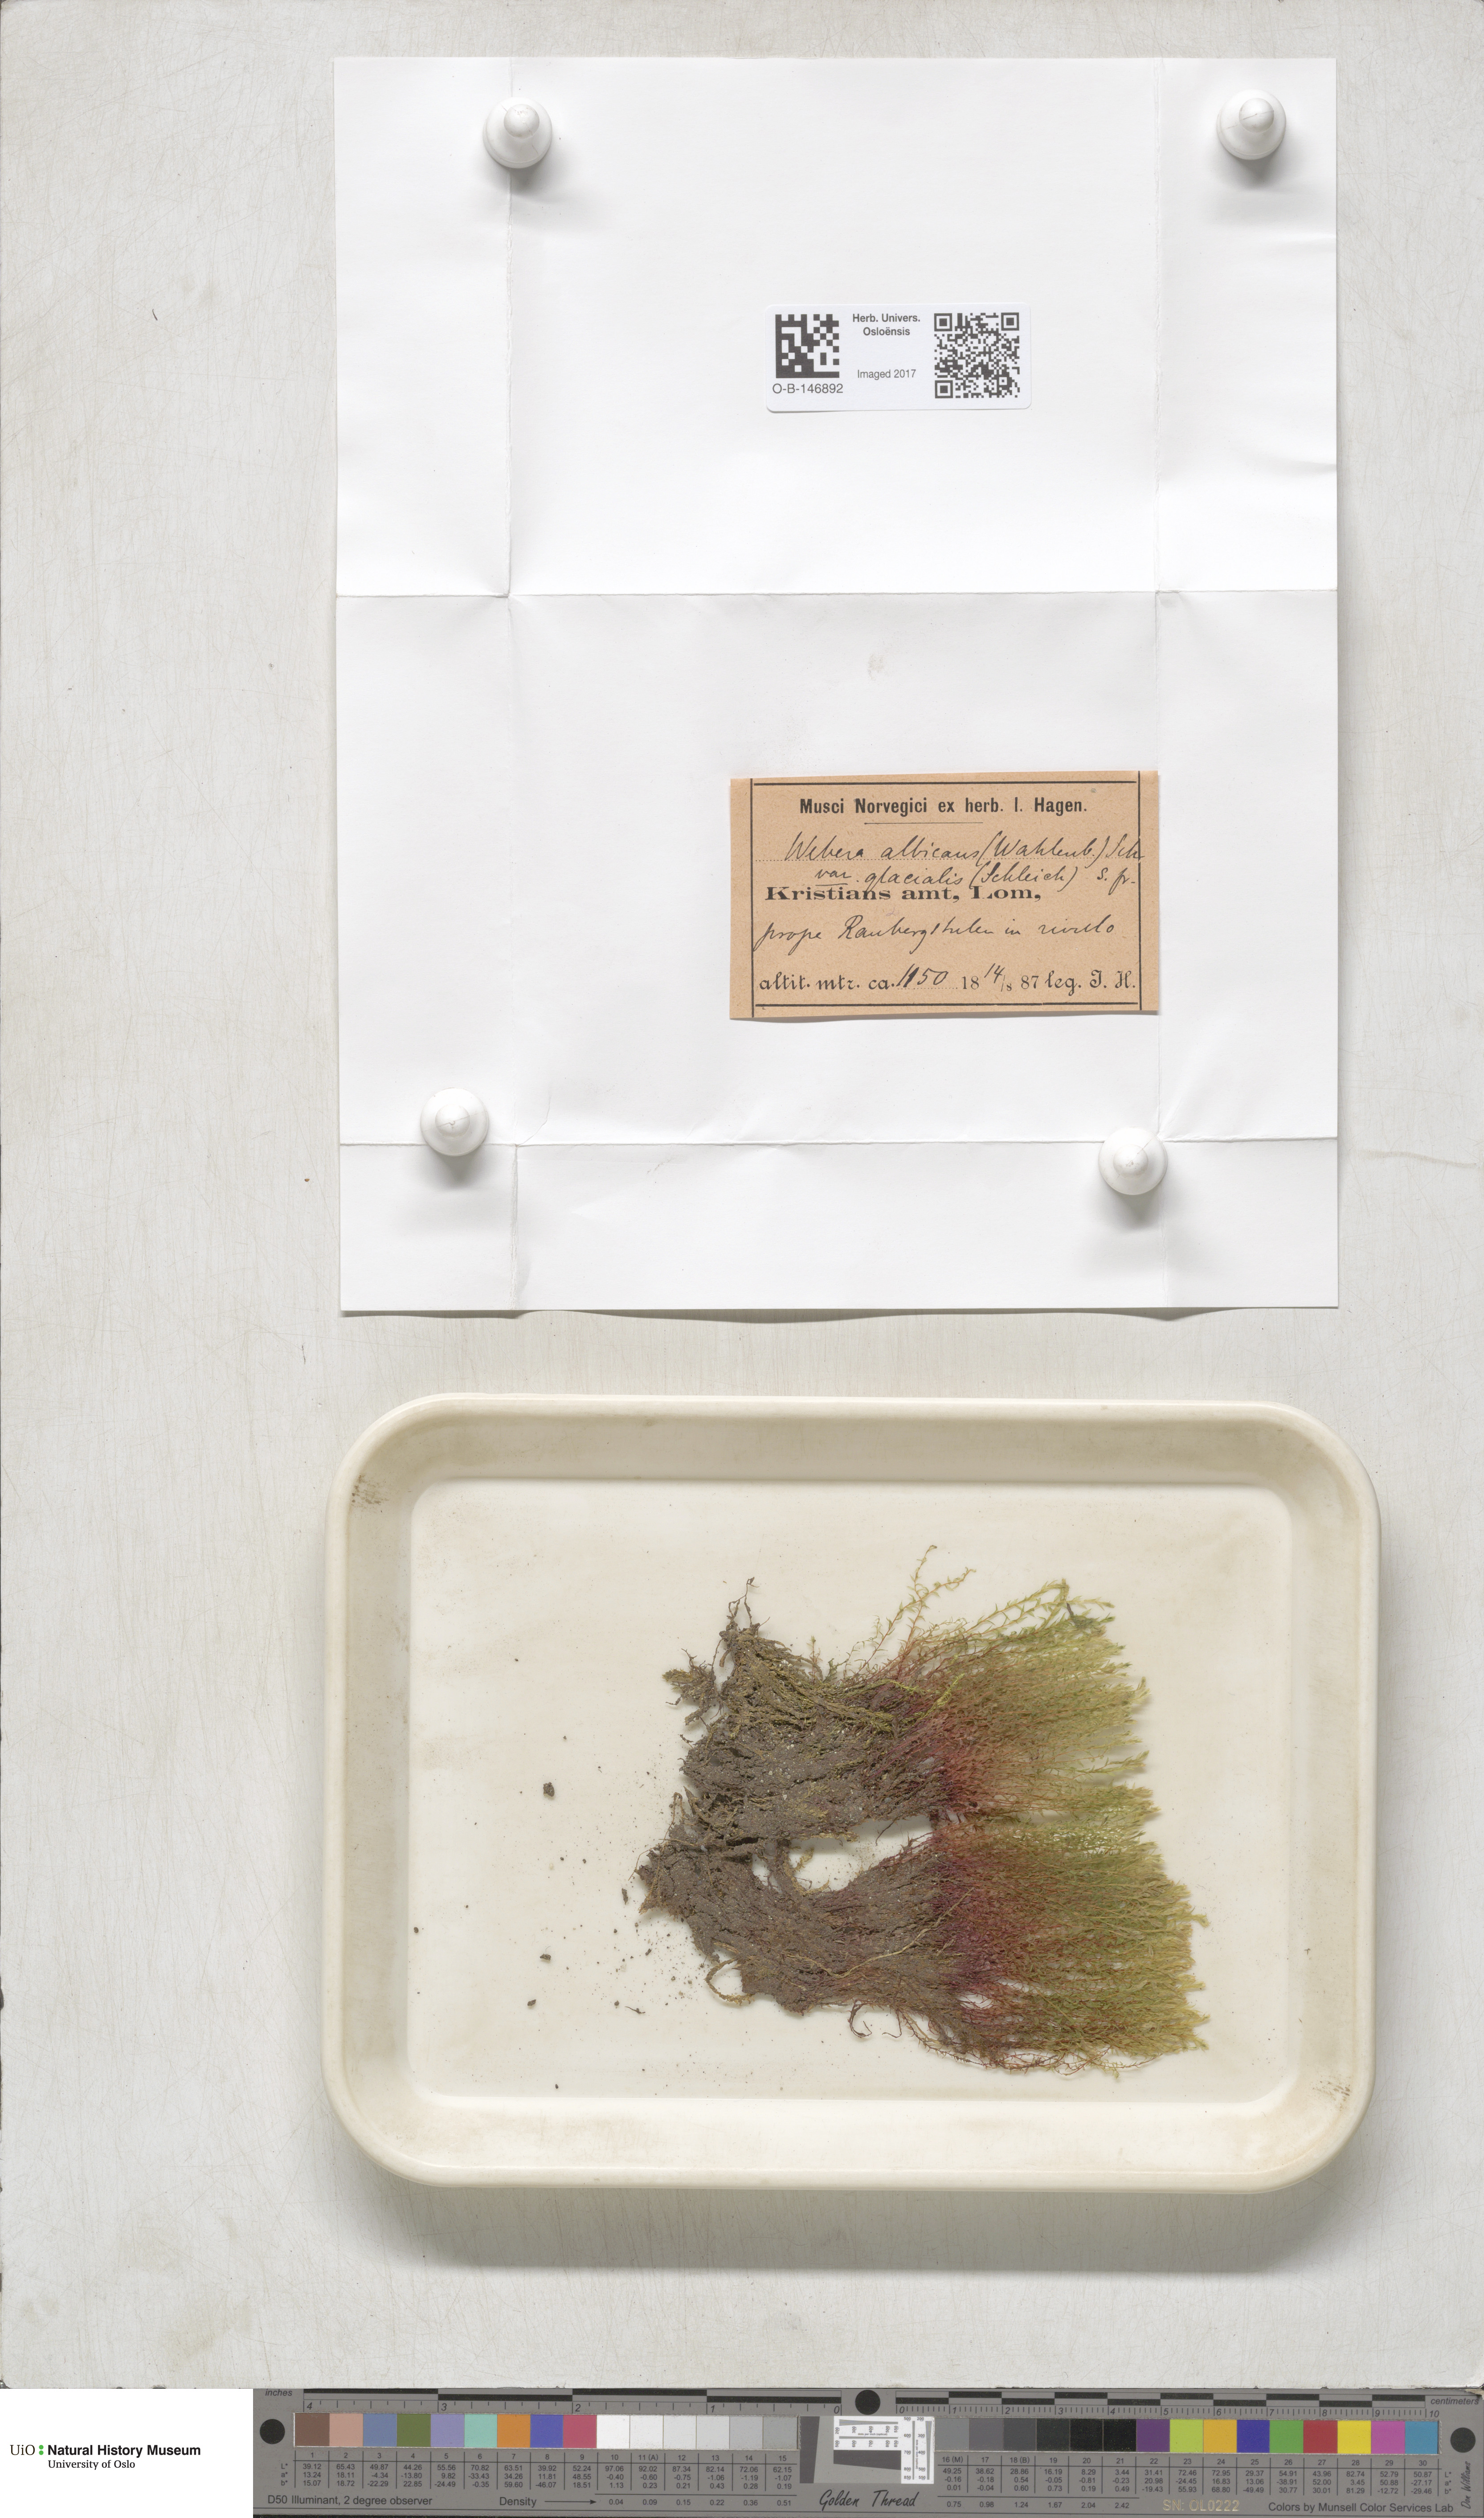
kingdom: Plantae
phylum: Bryophyta
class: Bryopsida
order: Bryales
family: Mniaceae
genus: Pohlia
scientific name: Pohlia wahlenbergii
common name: Wahlenberg's nodding moss
